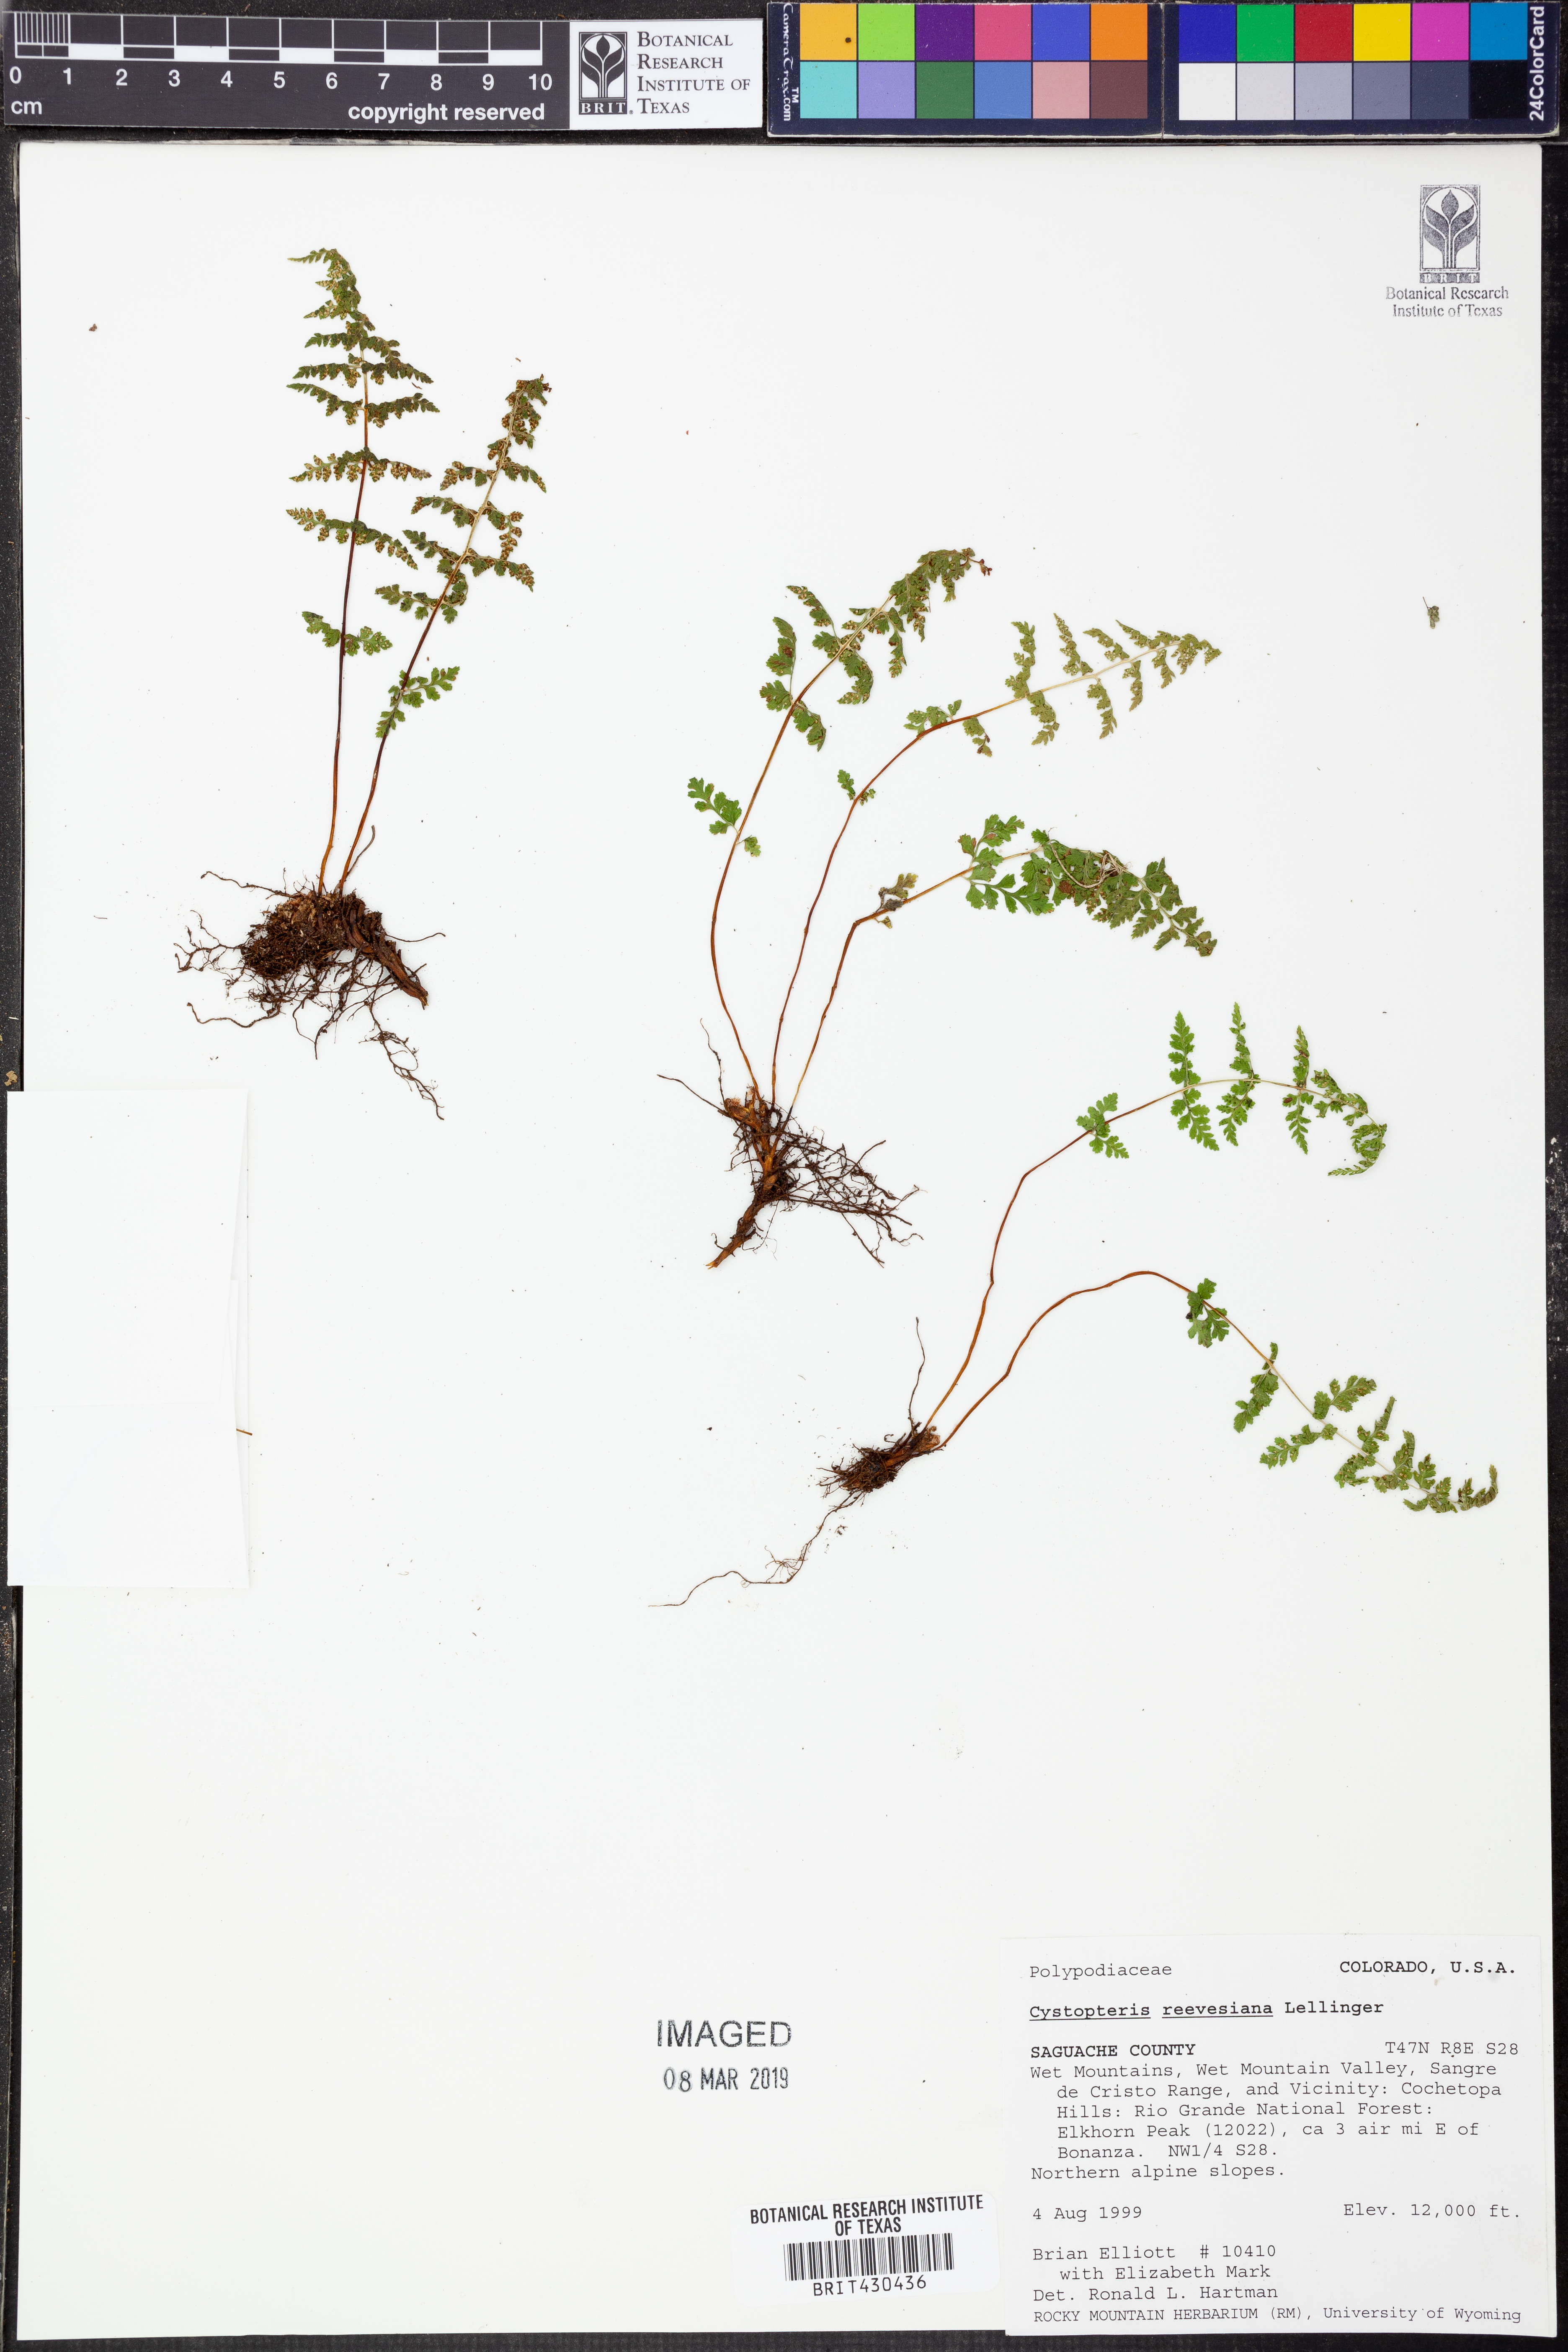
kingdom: Plantae
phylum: Tracheophyta
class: Polypodiopsida
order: Polypodiales
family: Cystopteridaceae
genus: Cystopteris
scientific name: Cystopteris reevesiana
